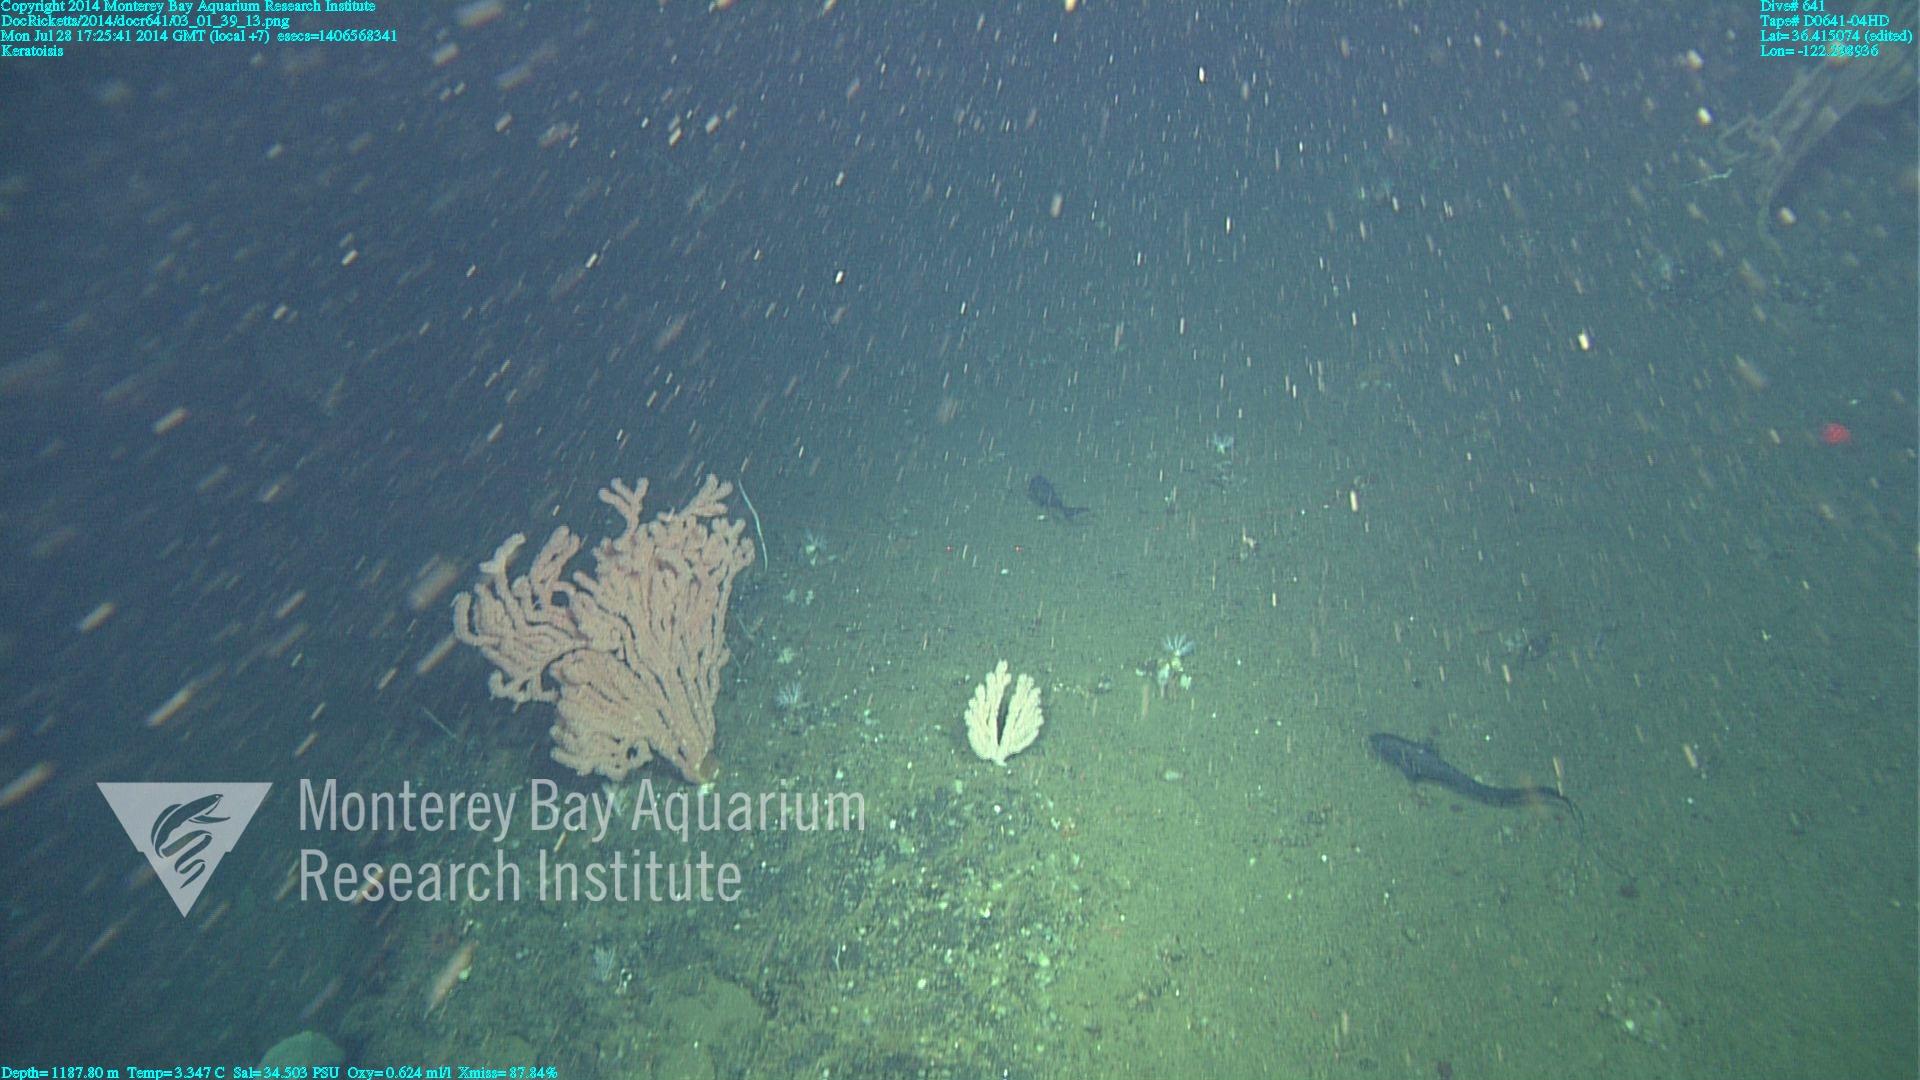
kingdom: Animalia
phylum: Cnidaria
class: Anthozoa
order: Scleralcyonacea
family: Keratoisididae
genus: Keratoisis
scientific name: Keratoisis
